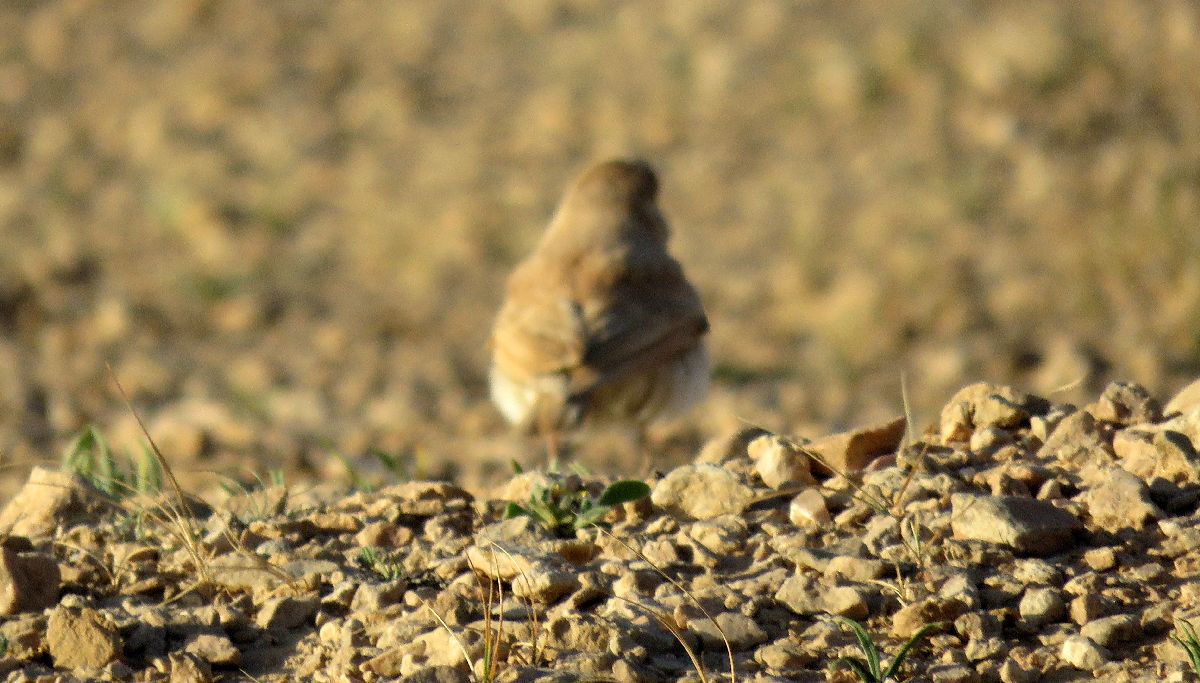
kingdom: Animalia
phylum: Chordata
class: Aves
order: Passeriformes
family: Alaudidae
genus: Ammomanes
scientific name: Ammomanes deserti
